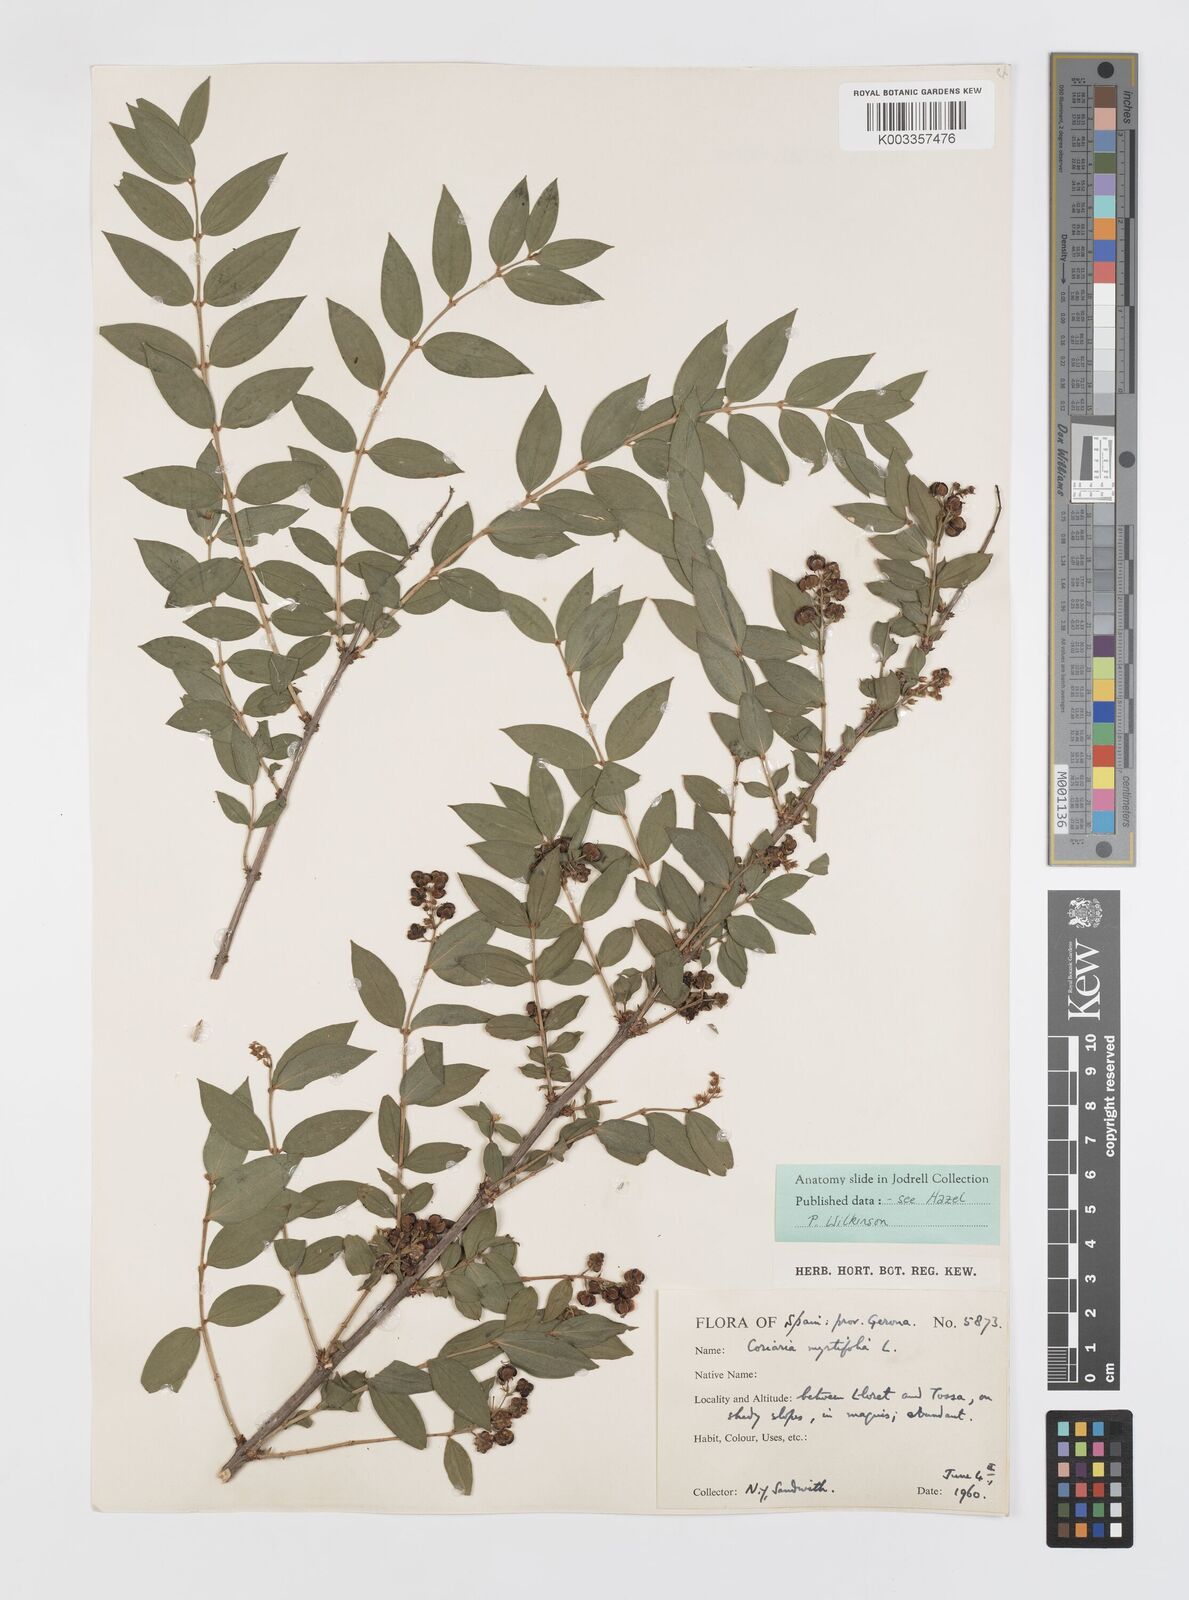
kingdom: Plantae
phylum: Tracheophyta
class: Magnoliopsida
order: Cucurbitales
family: Coriariaceae
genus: Coriaria
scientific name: Coriaria myrtifolia
